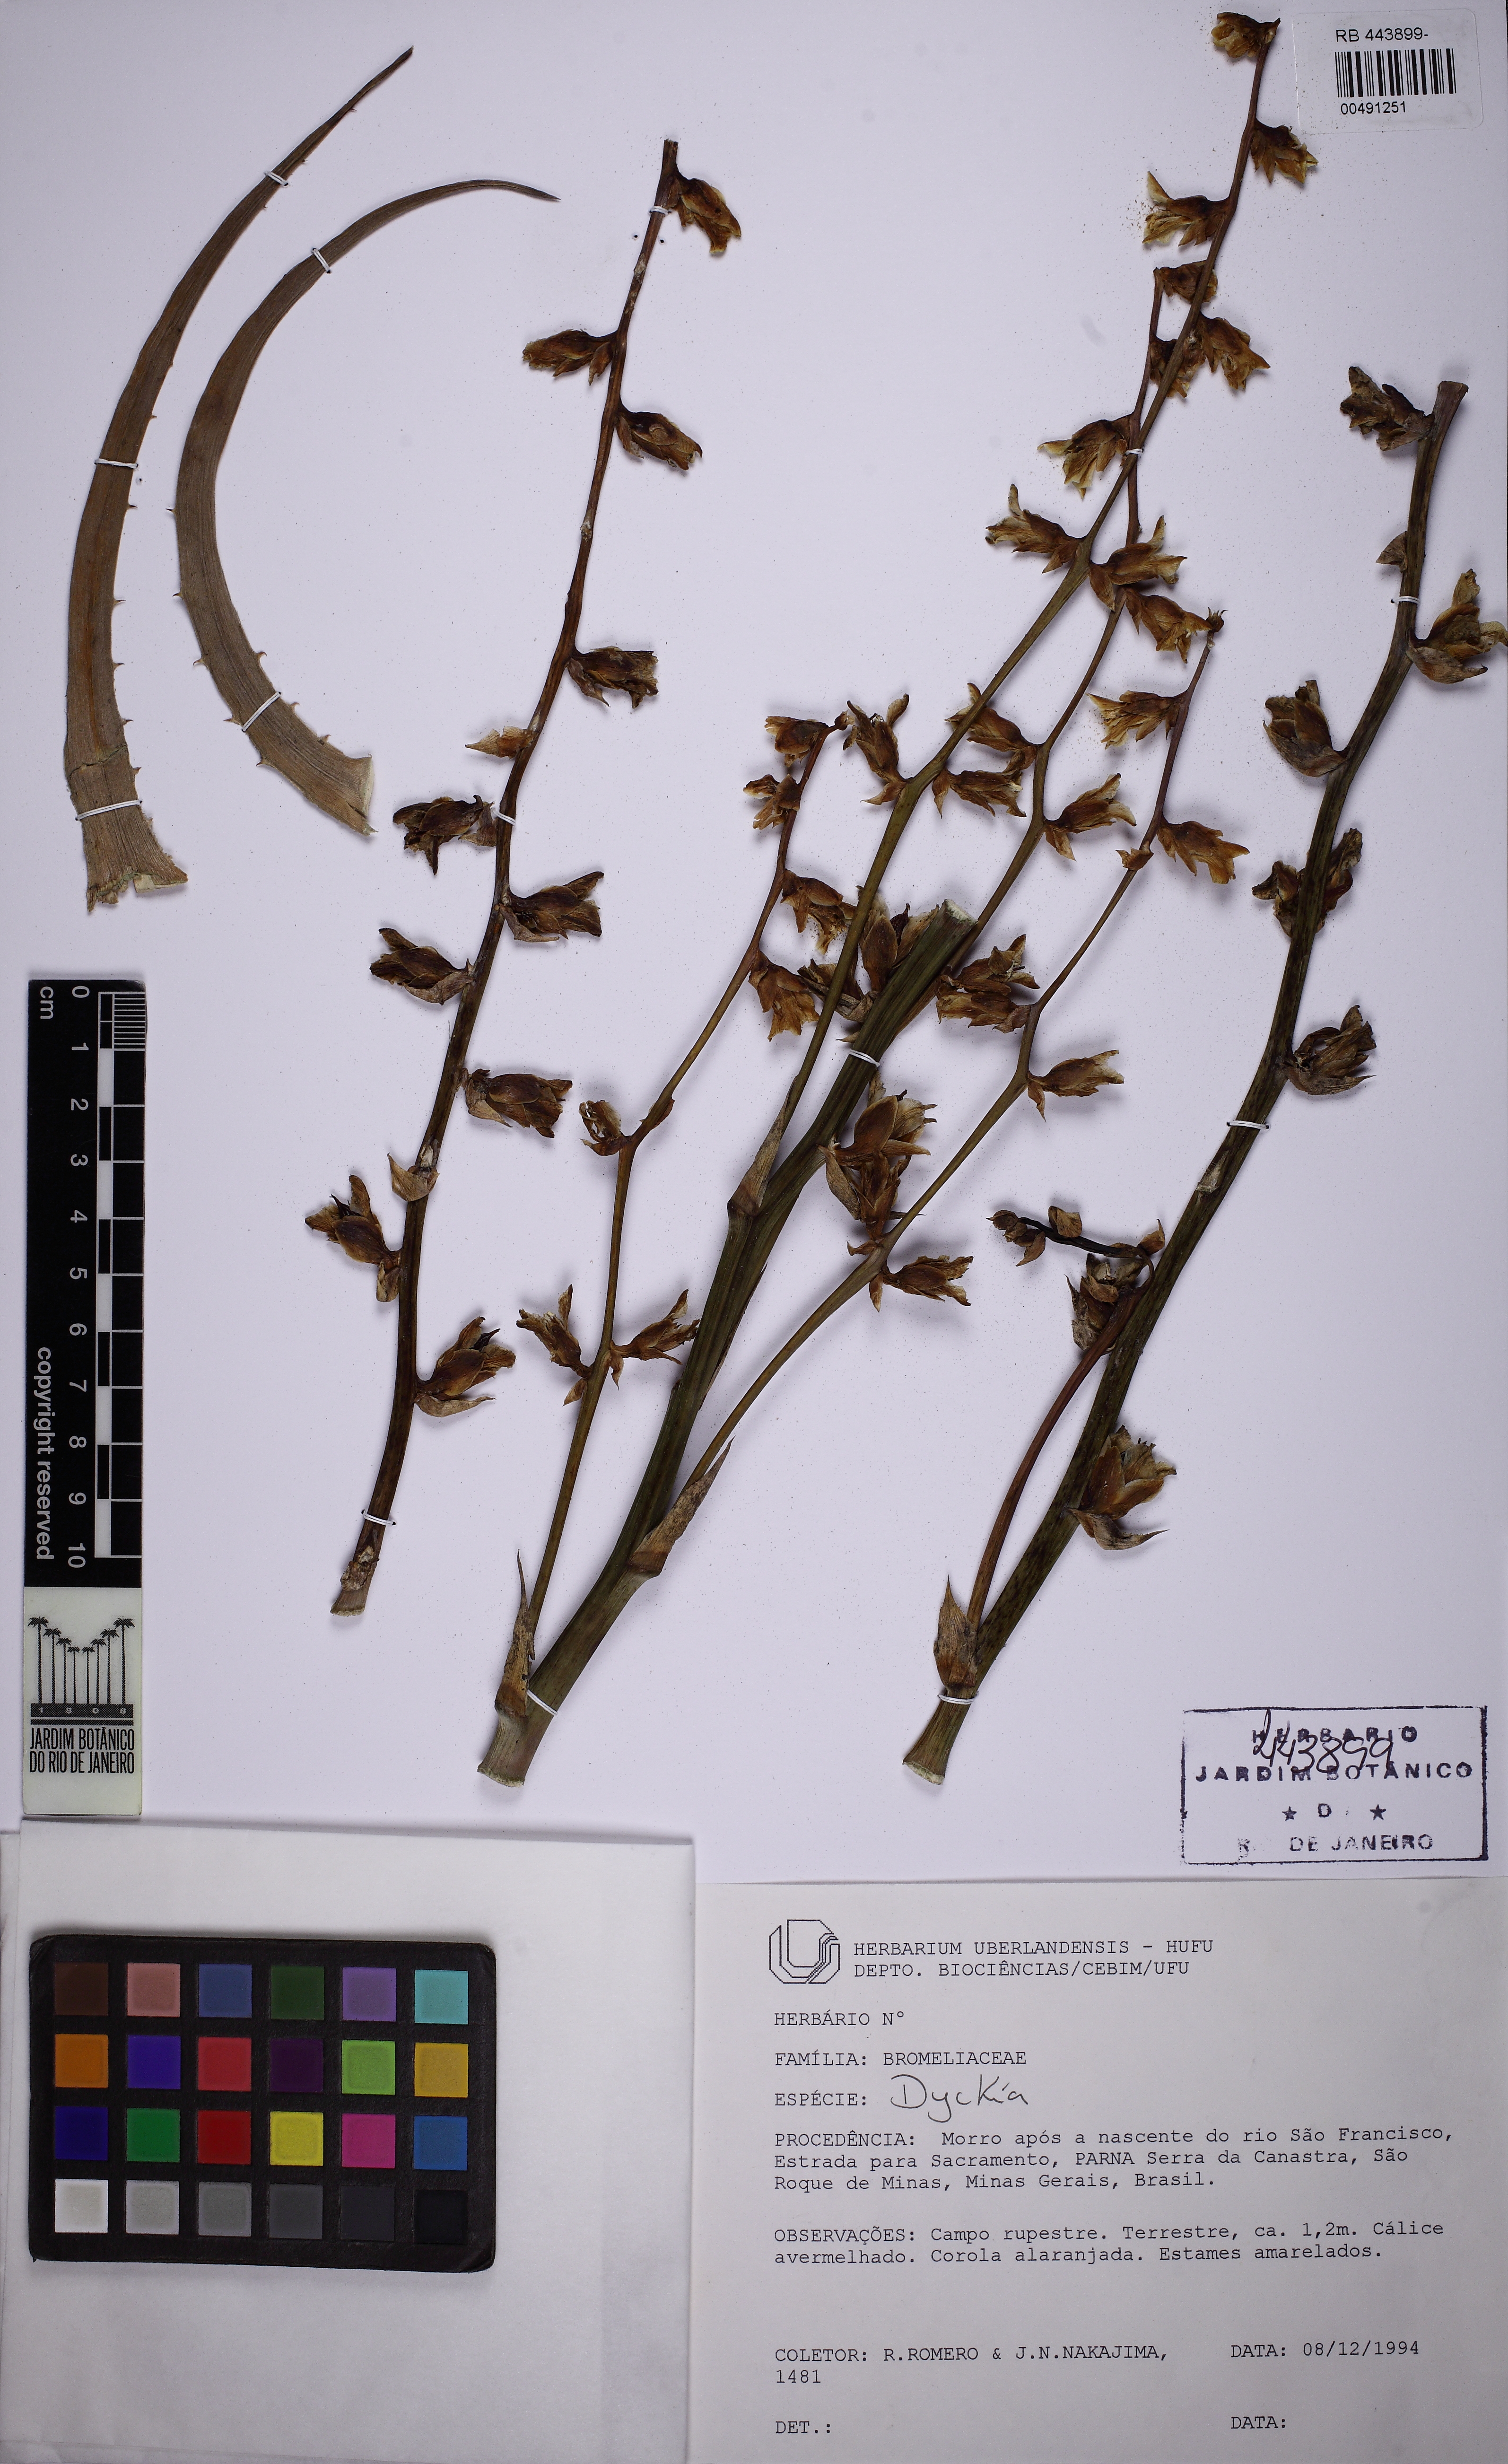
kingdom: Plantae
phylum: Tracheophyta
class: Liliopsida
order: Poales
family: Bromeliaceae
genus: Dyckia
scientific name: Dyckia
